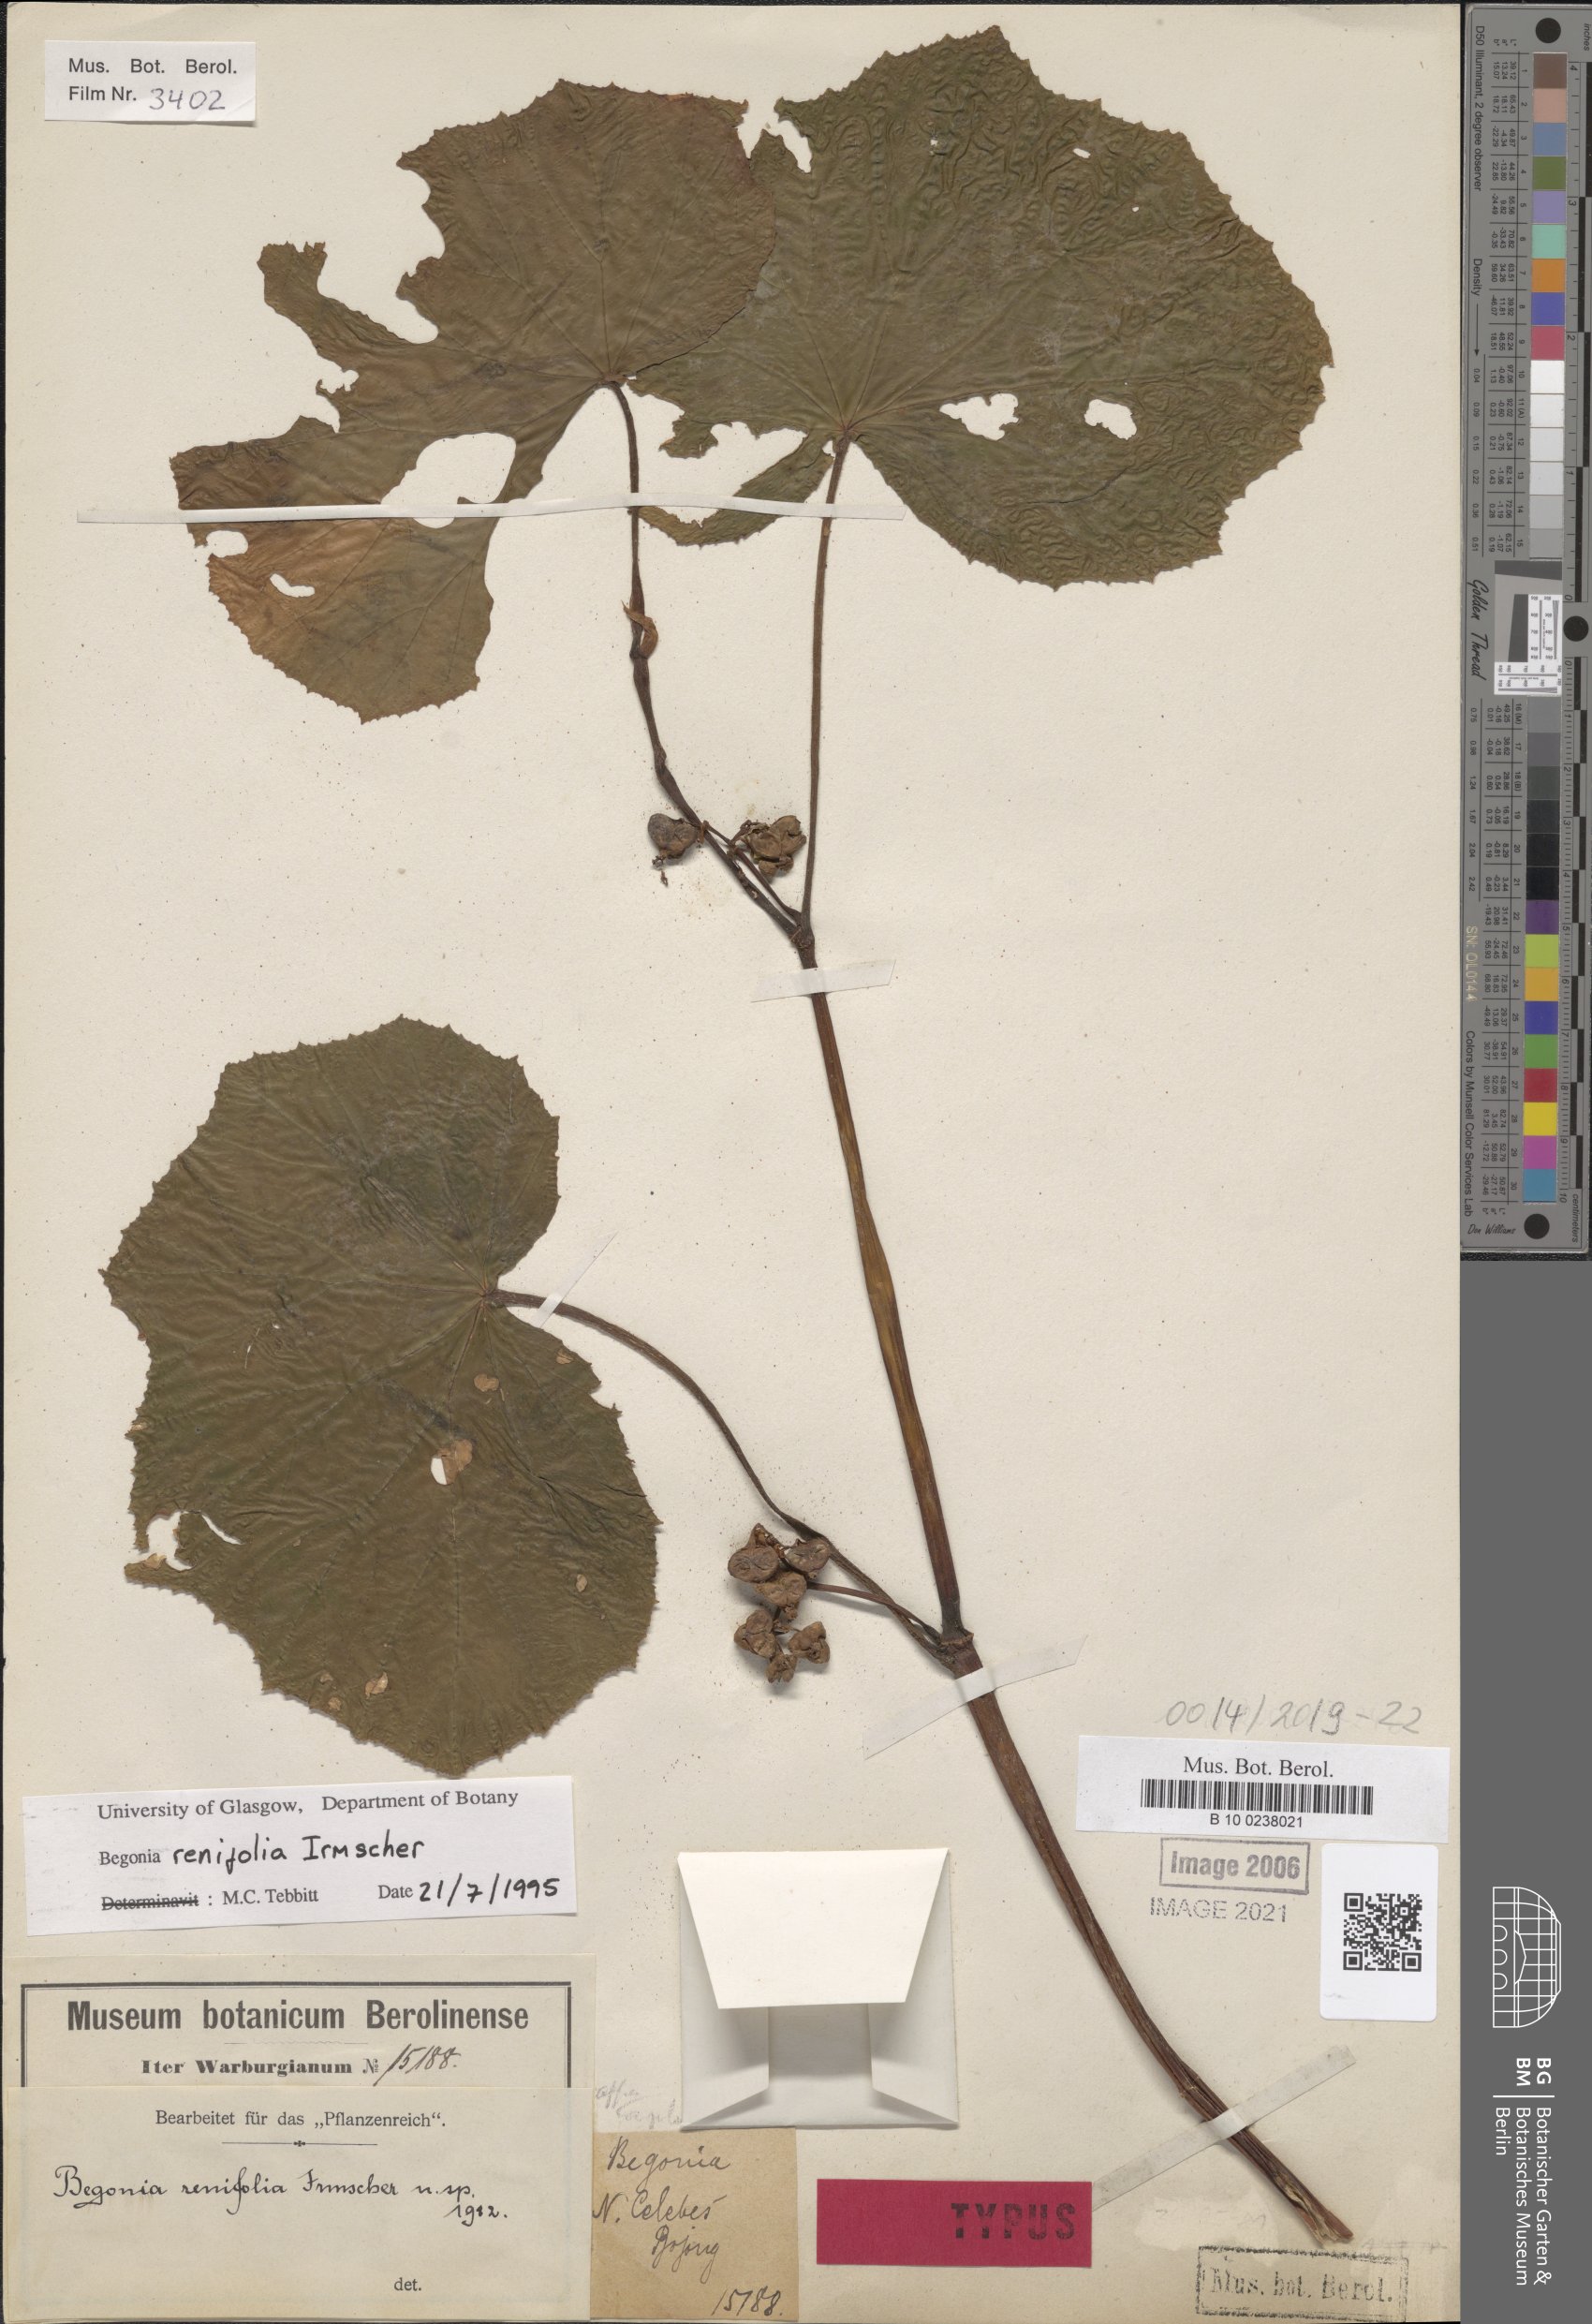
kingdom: Plantae
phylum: Tracheophyta
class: Magnoliopsida
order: Cucurbitales
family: Begoniaceae
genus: Begonia
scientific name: Begonia aptera
